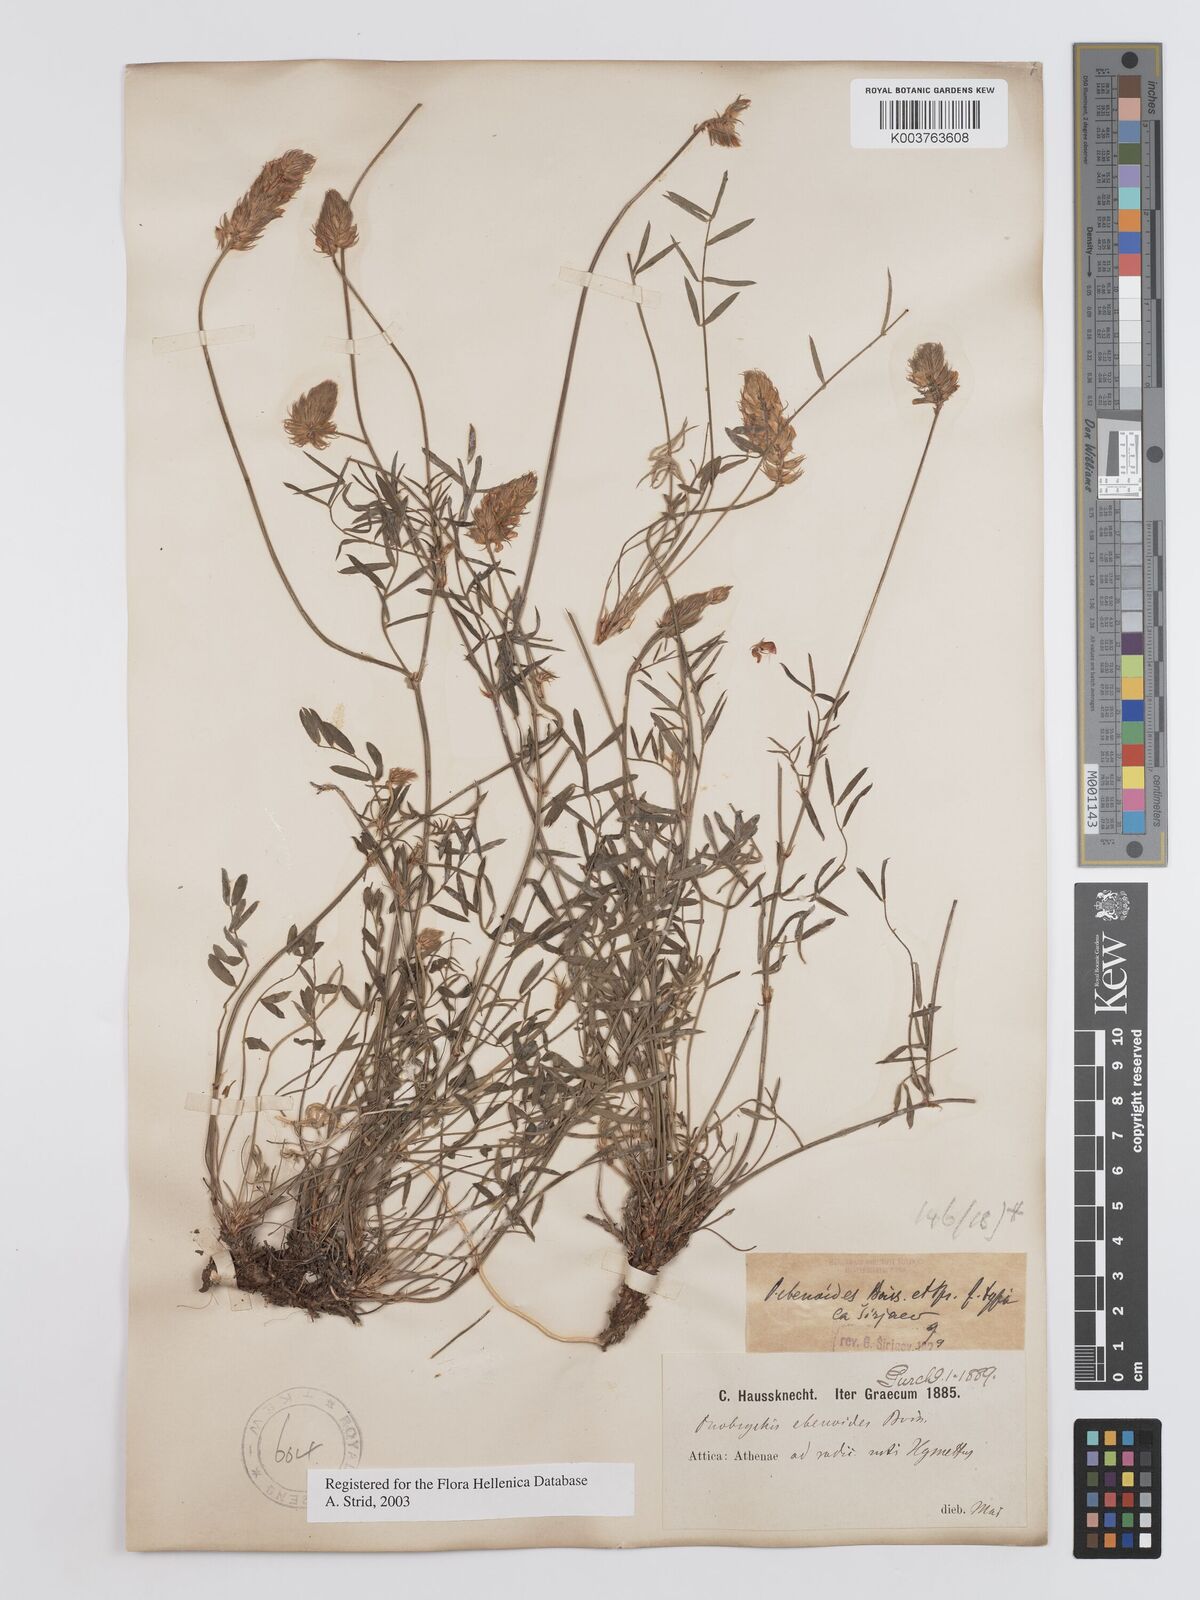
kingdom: Plantae
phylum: Tracheophyta
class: Magnoliopsida
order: Fabales
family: Fabaceae
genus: Onobrychis
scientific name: Onobrychis ebenoides
